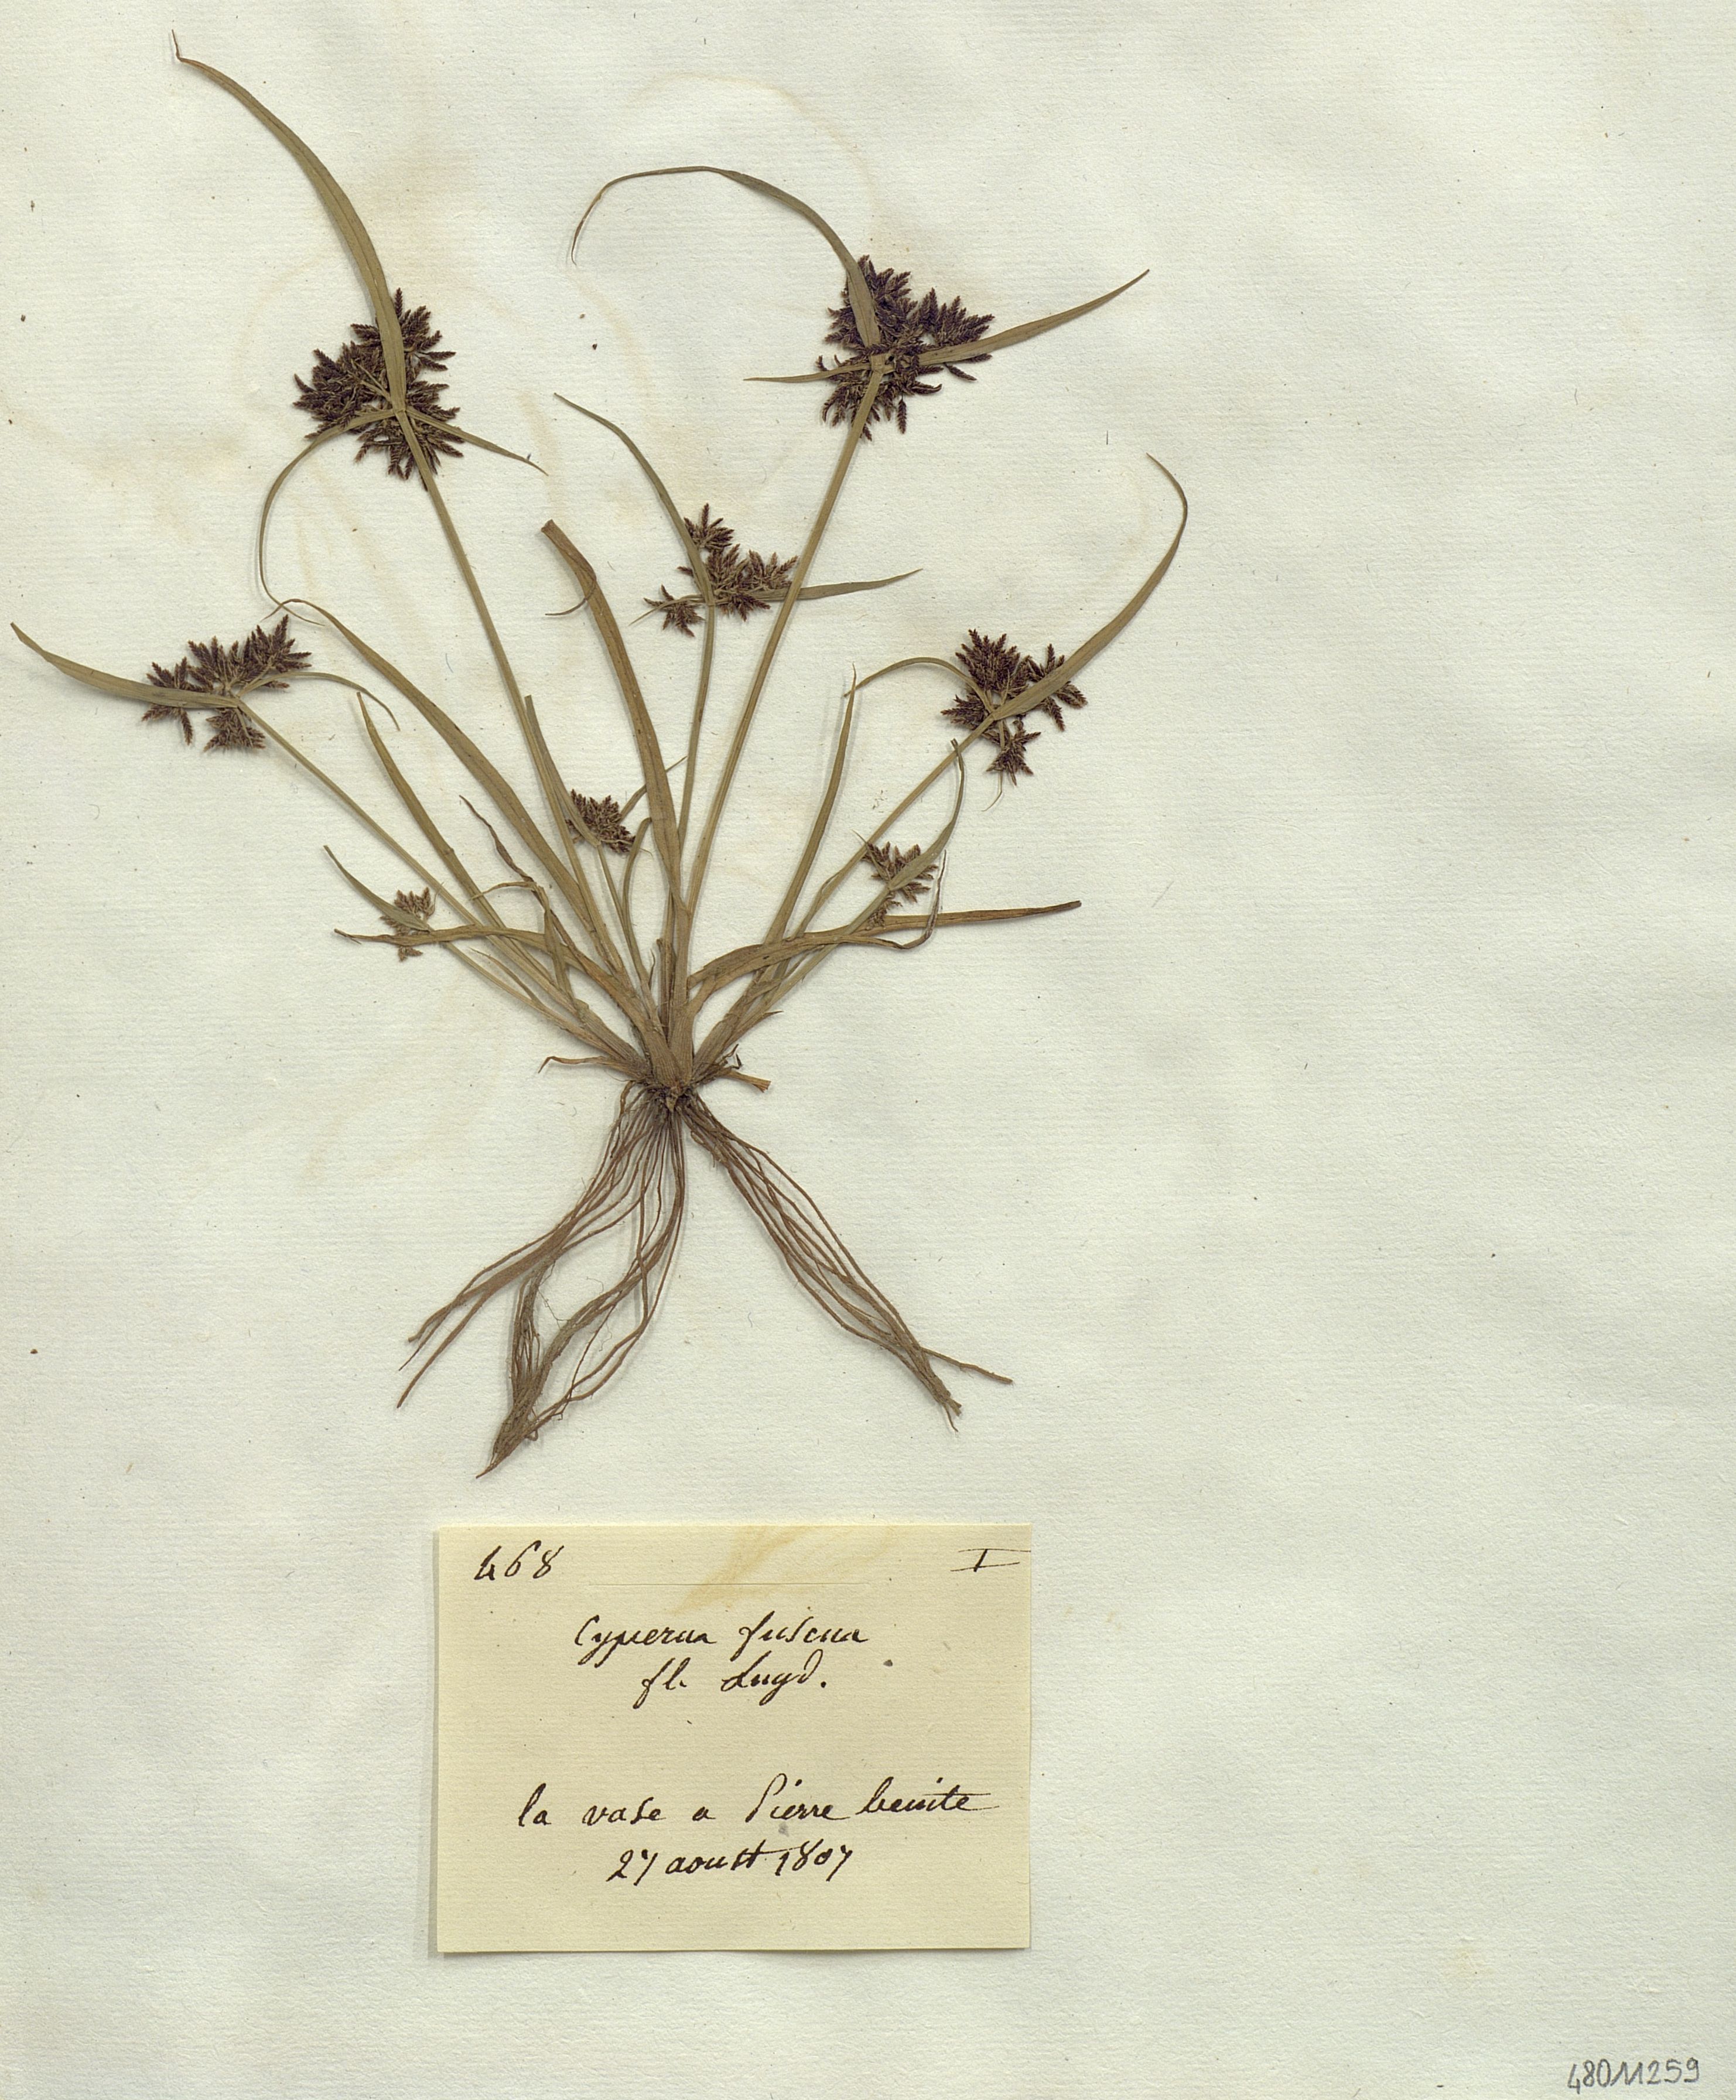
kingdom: Plantae
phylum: Tracheophyta
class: Liliopsida
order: Poales
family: Cyperaceae
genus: Cyperus
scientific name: Cyperus fuscus
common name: Brown galingale
